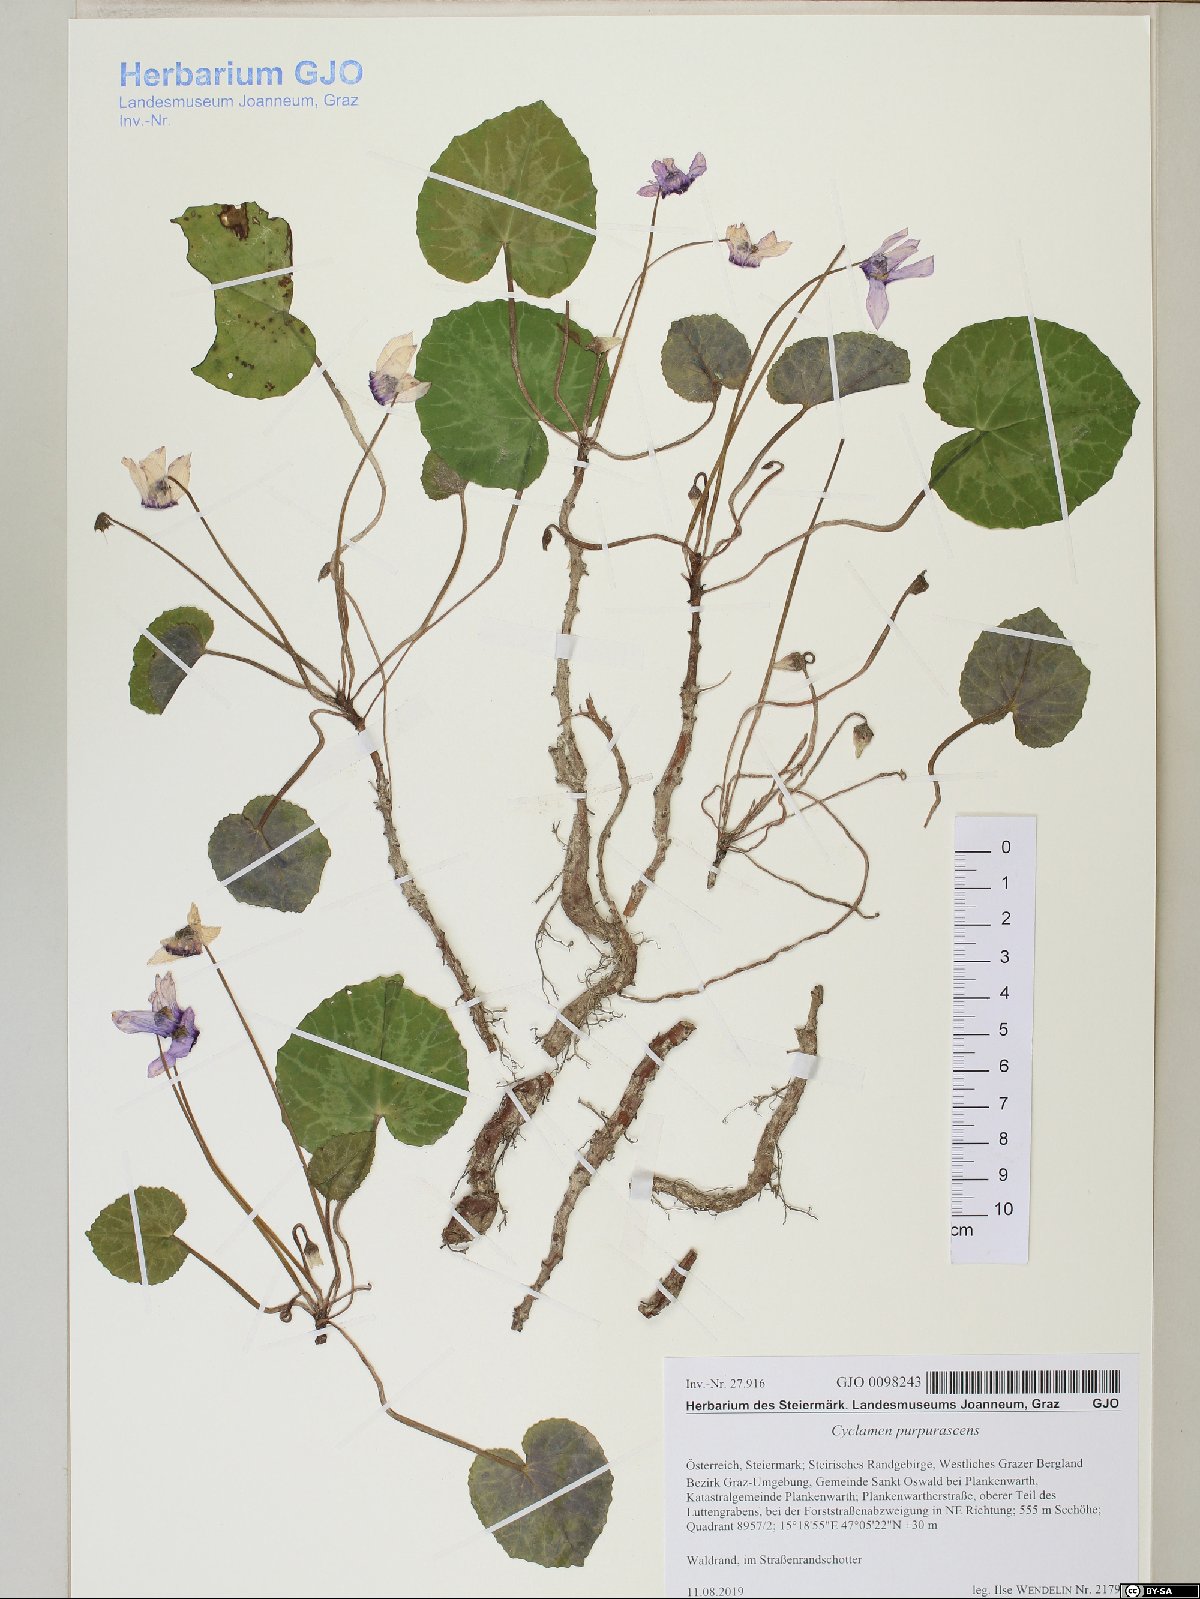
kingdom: Plantae
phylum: Tracheophyta
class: Magnoliopsida
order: Ericales
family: Primulaceae
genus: Cyclamen
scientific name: Cyclamen purpurascens
